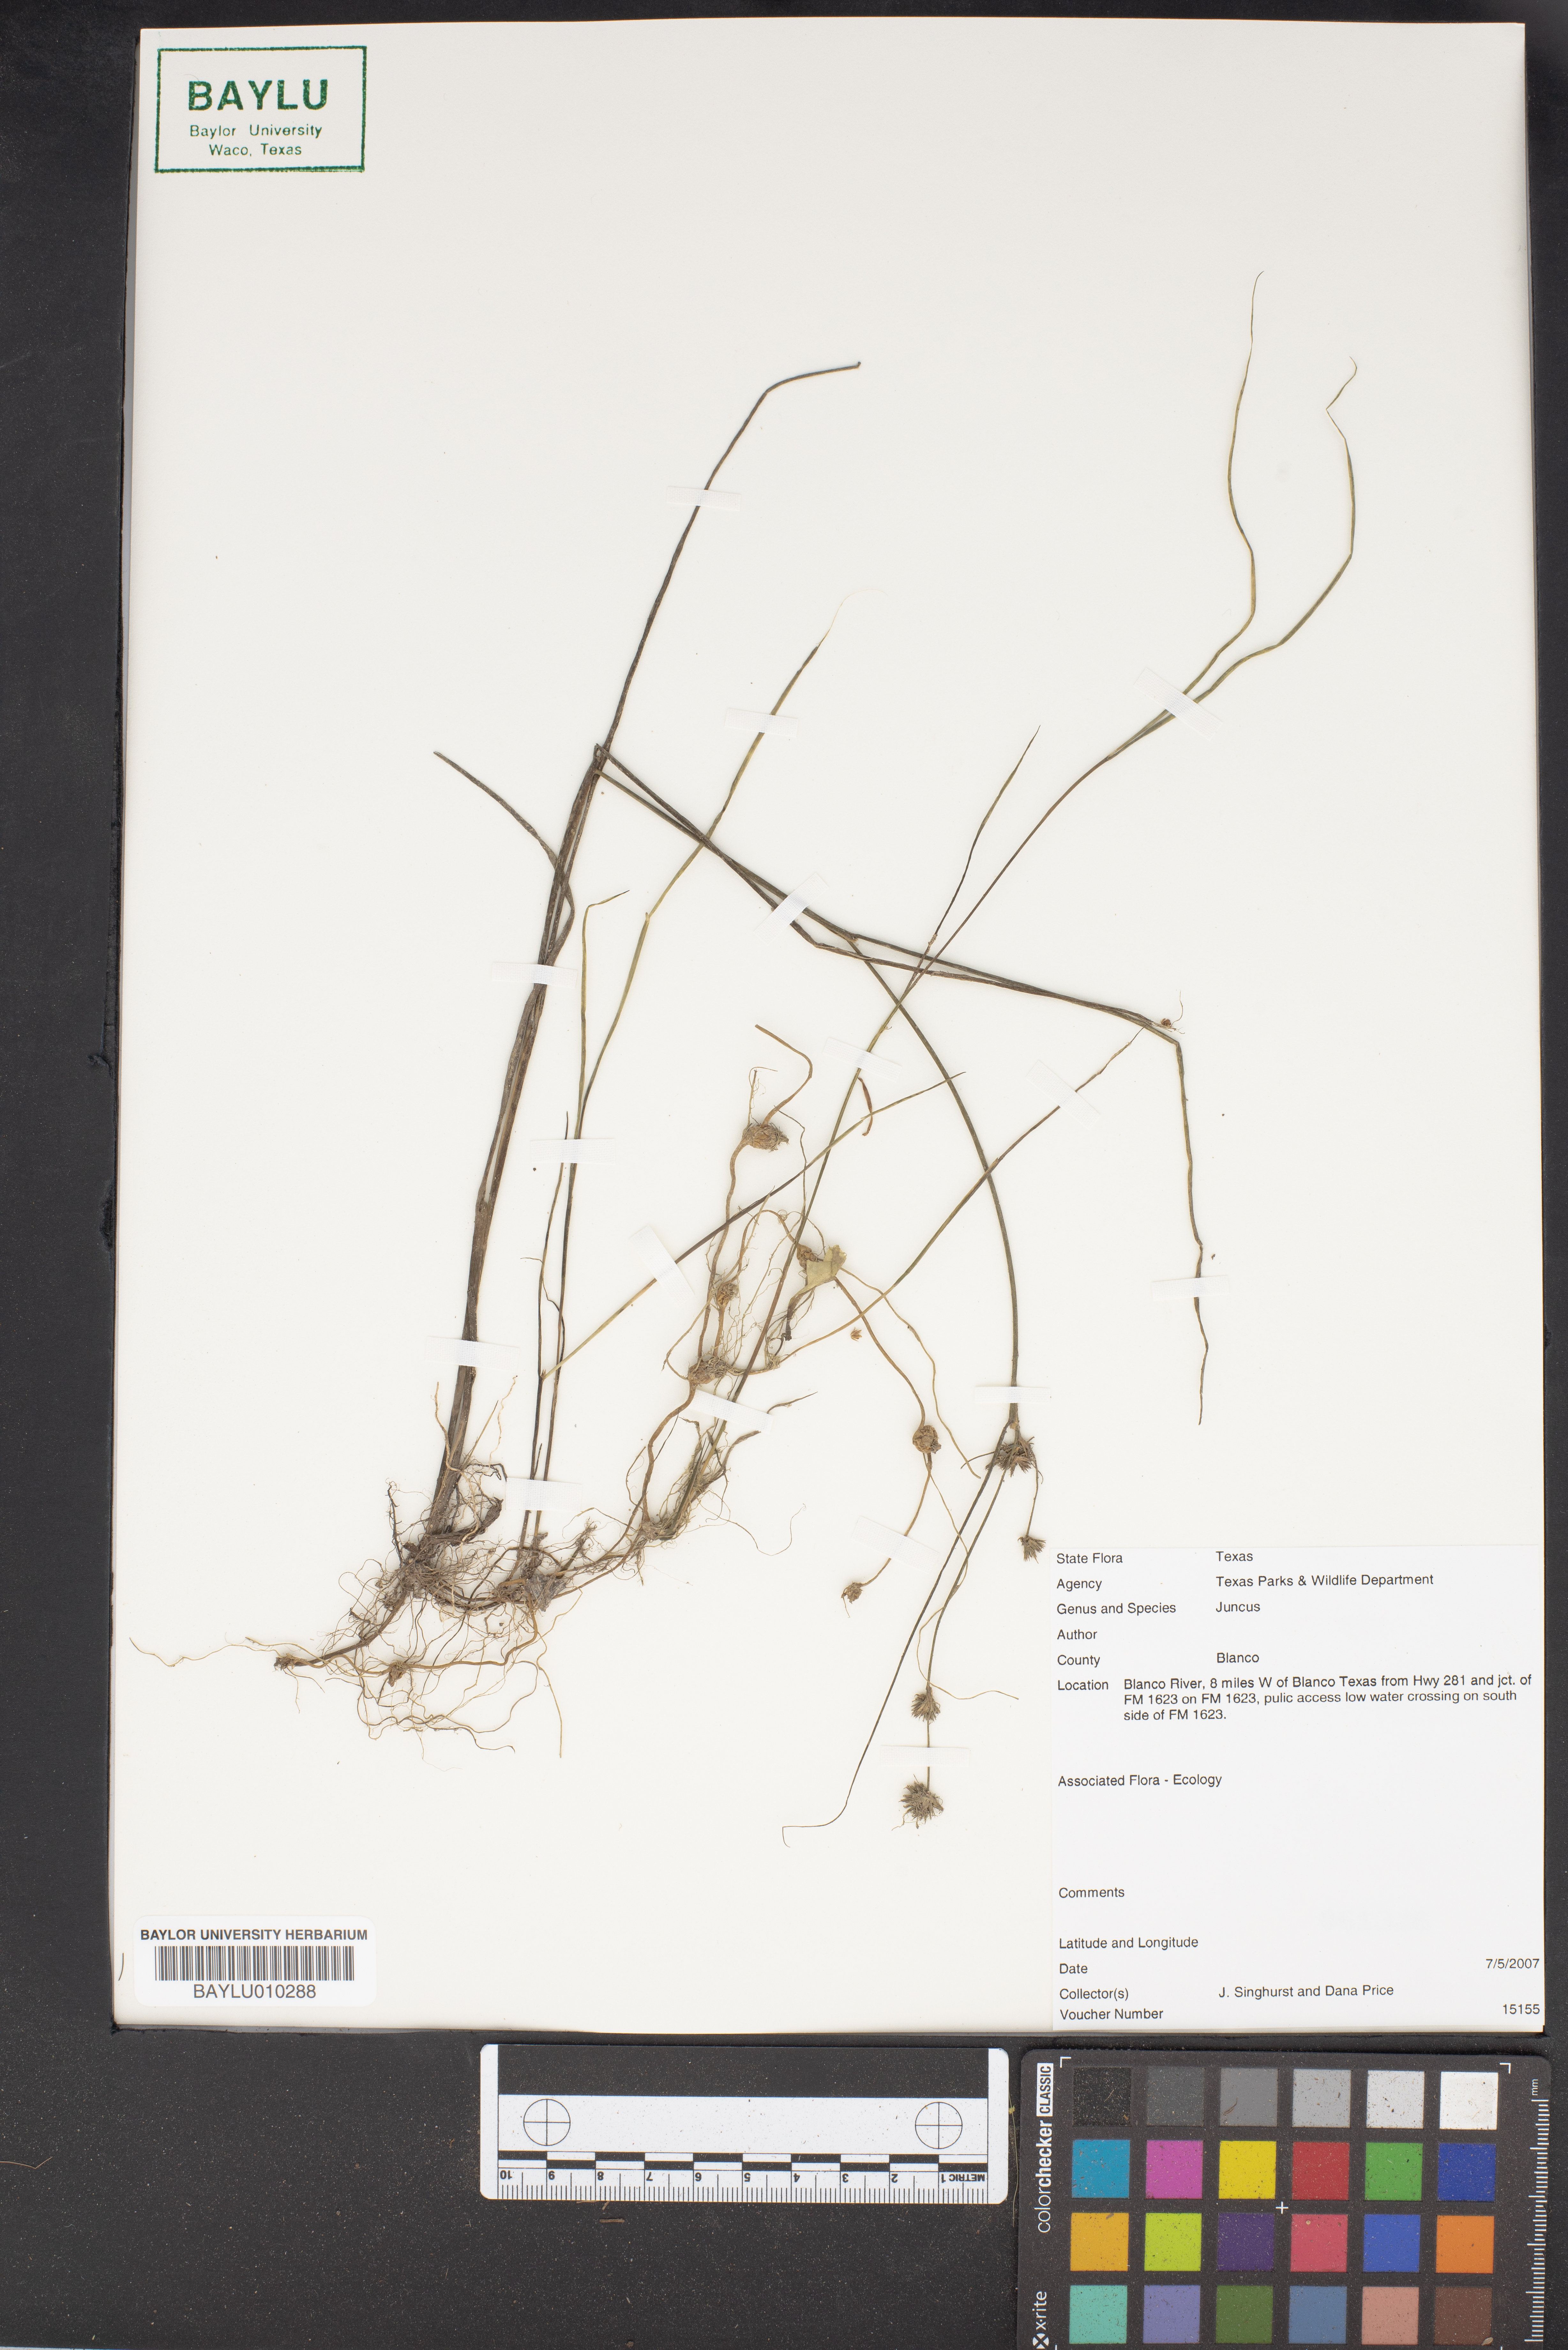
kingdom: Plantae
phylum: Tracheophyta
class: Liliopsida
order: Poales
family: Juncaceae
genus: Juncus
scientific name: Juncus
